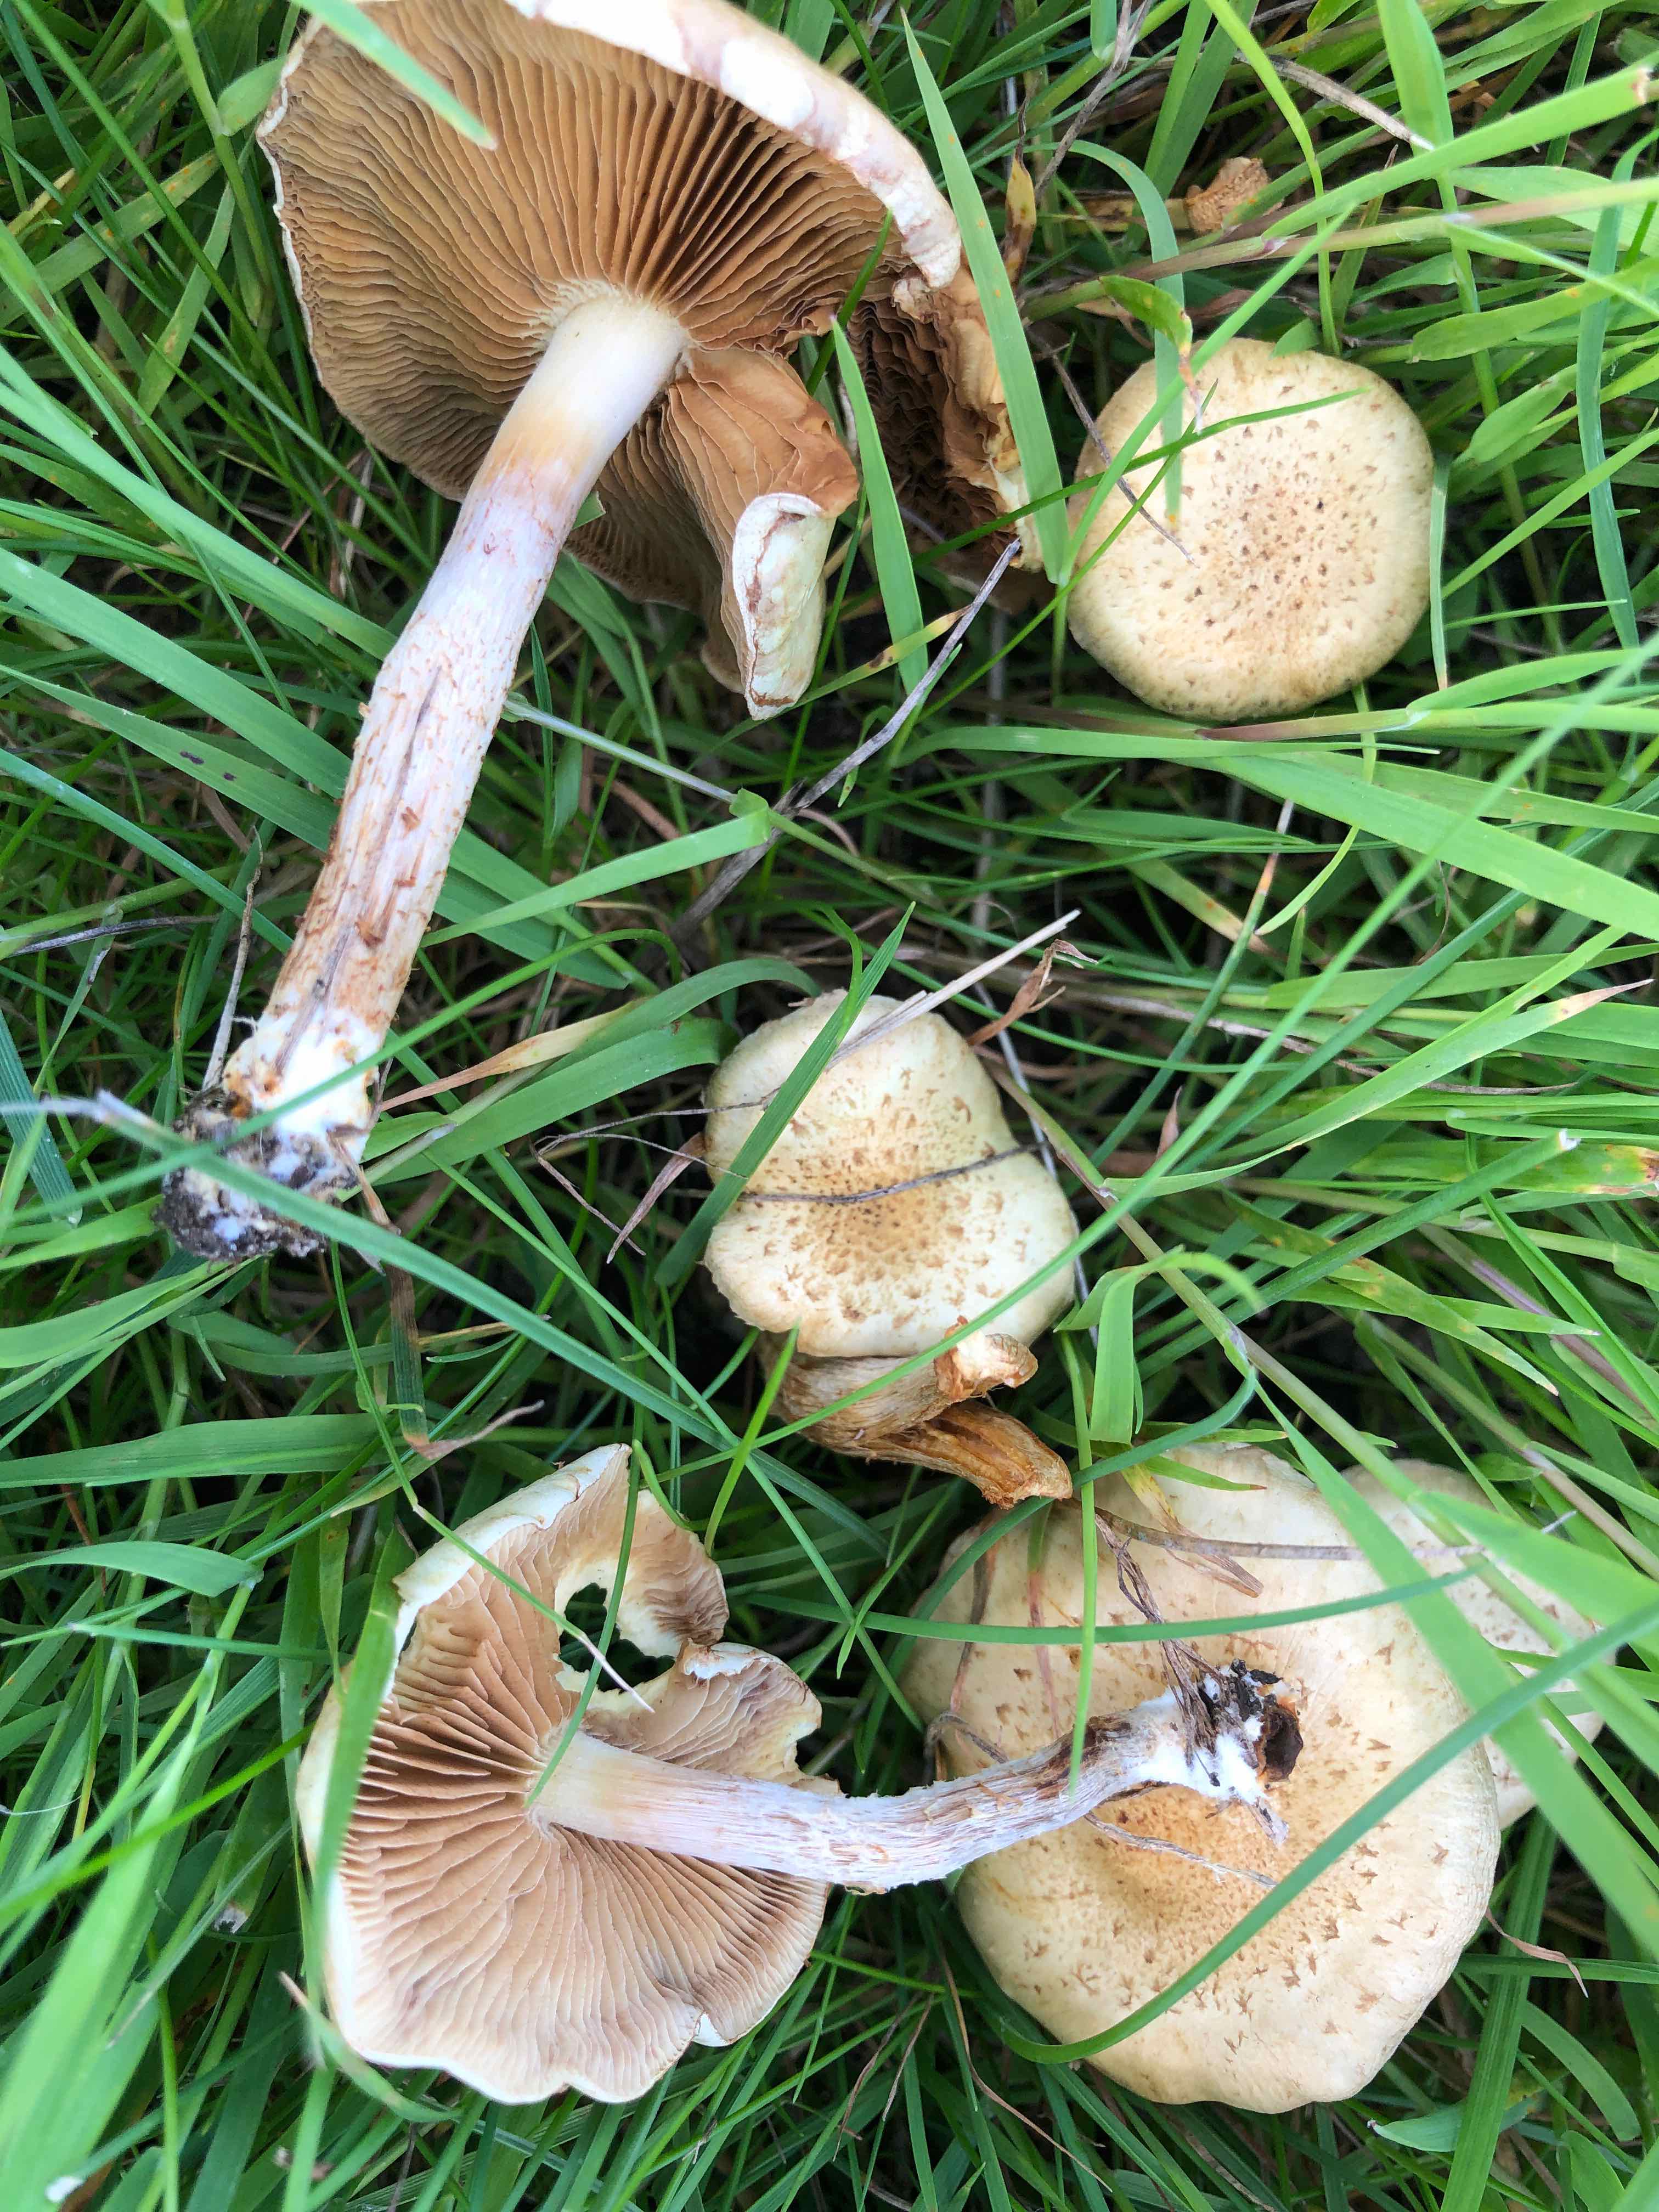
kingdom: Fungi
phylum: Basidiomycota
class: Agaricomycetes
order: Agaricales
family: Strophariaceae
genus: Pholiota
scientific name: Pholiota gummosa
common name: grøngul skælhat
